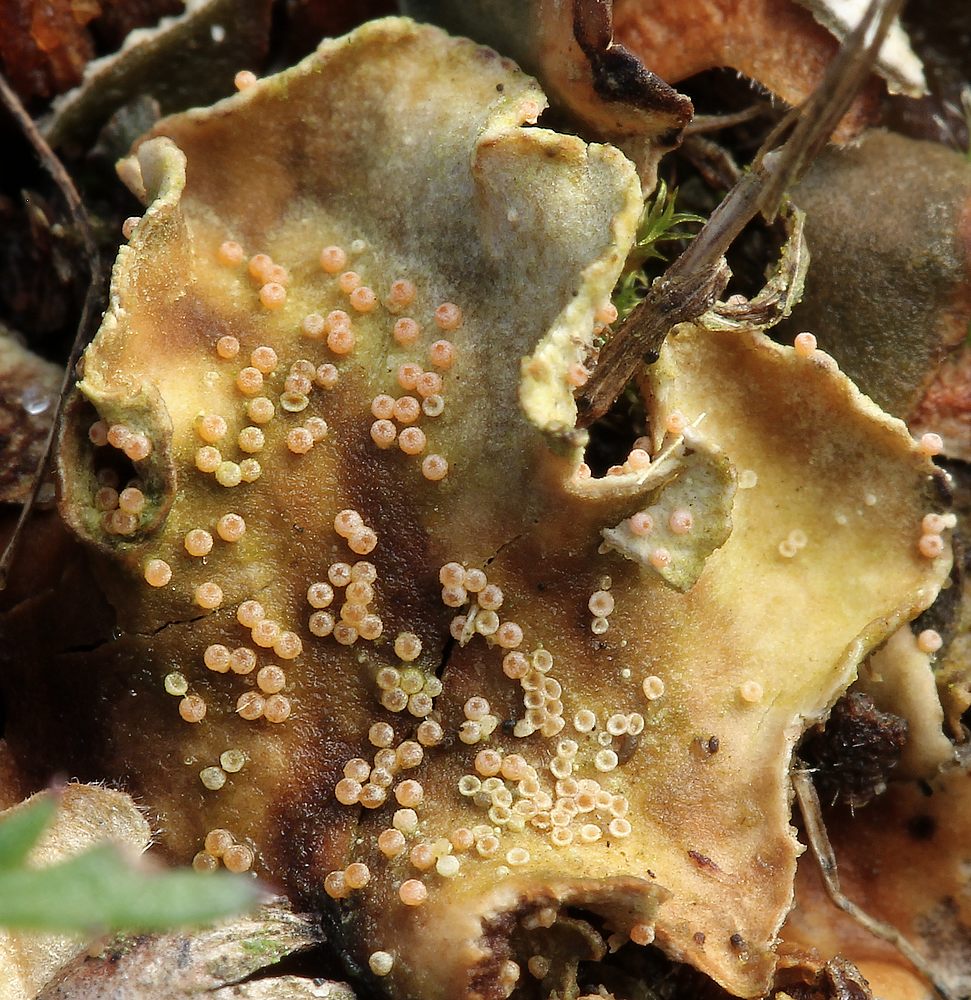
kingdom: Fungi
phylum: Ascomycota
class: Sordariomycetes
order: Hypocreales
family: Bionectriaceae
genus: Nectriopsis
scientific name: Nectriopsis lecanodes
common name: skjoldlav-gyldenkerne
